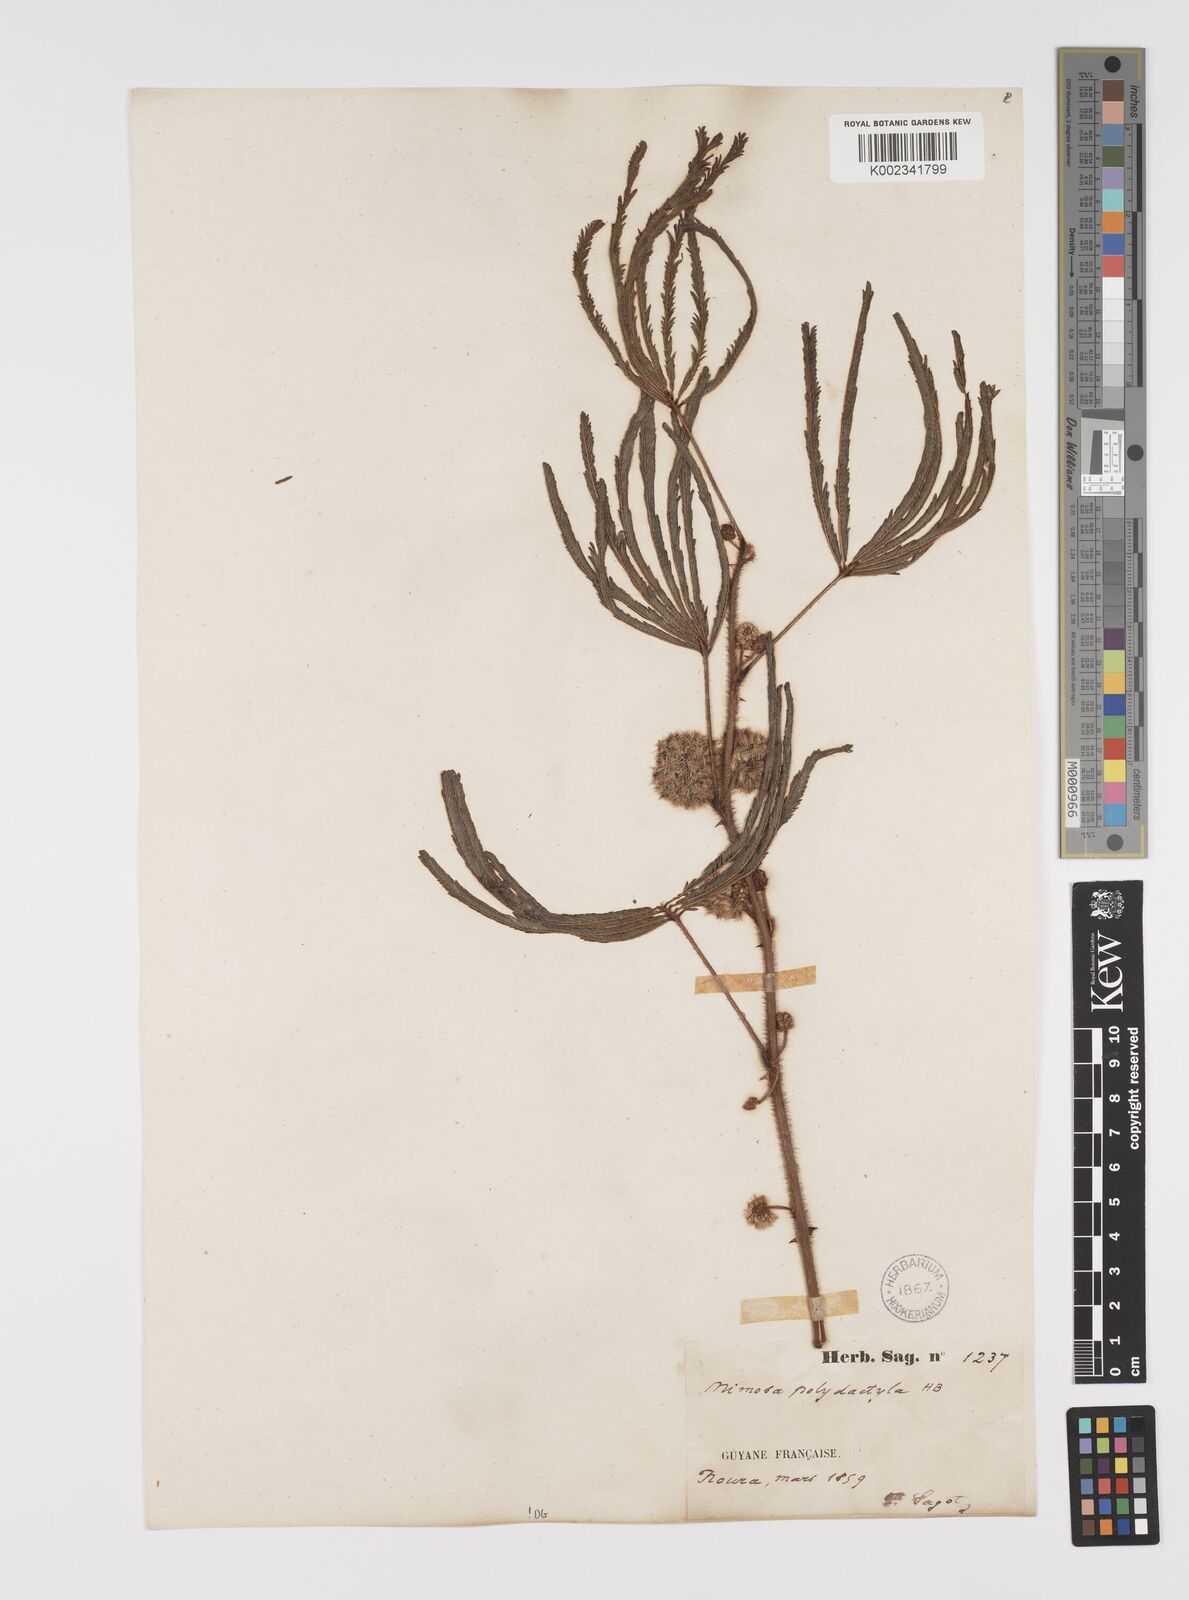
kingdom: Plantae
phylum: Tracheophyta
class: Magnoliopsida
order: Fabales
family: Fabaceae
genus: Mimosa
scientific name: Mimosa polydactyla
